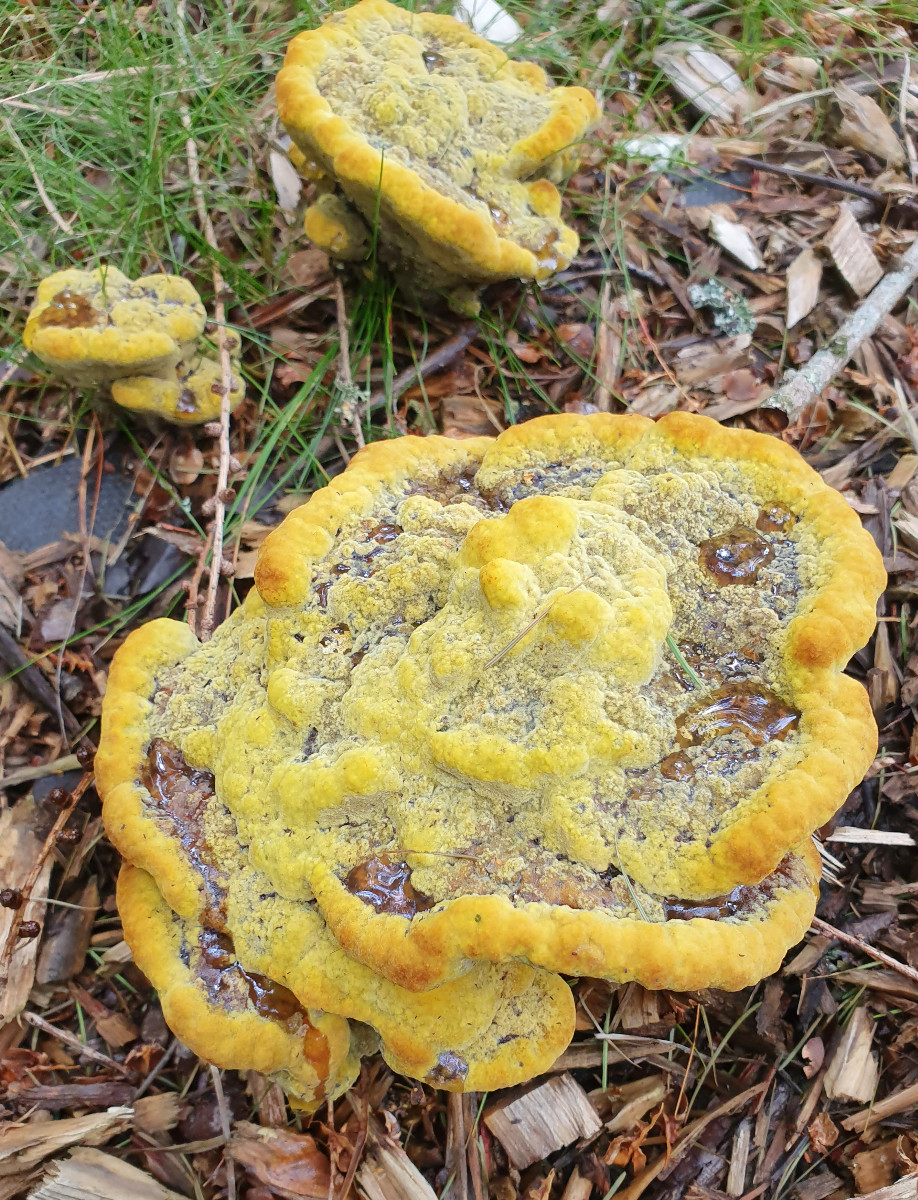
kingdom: Fungi
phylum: Basidiomycota
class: Agaricomycetes
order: Polyporales
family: Laetiporaceae
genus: Phaeolus
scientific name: Phaeolus schweinitzii
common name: brunporesvamp
